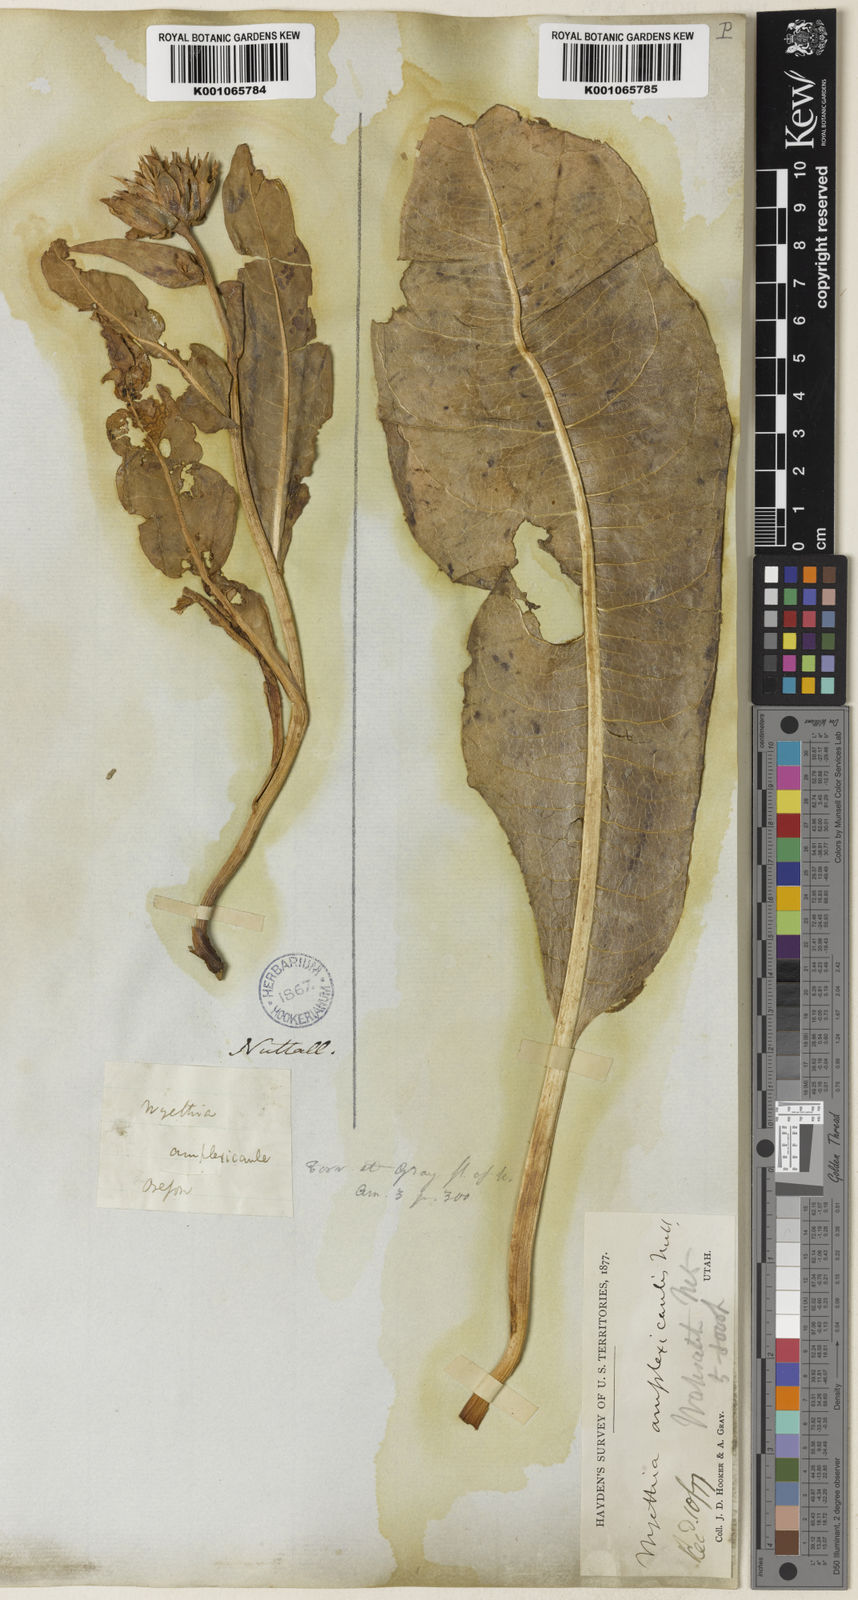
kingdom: Plantae
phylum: Tracheophyta
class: Magnoliopsida
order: Asterales
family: Asteraceae
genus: Wyethia
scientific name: Wyethia amplexicaulis
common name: Northern mule's-ears
